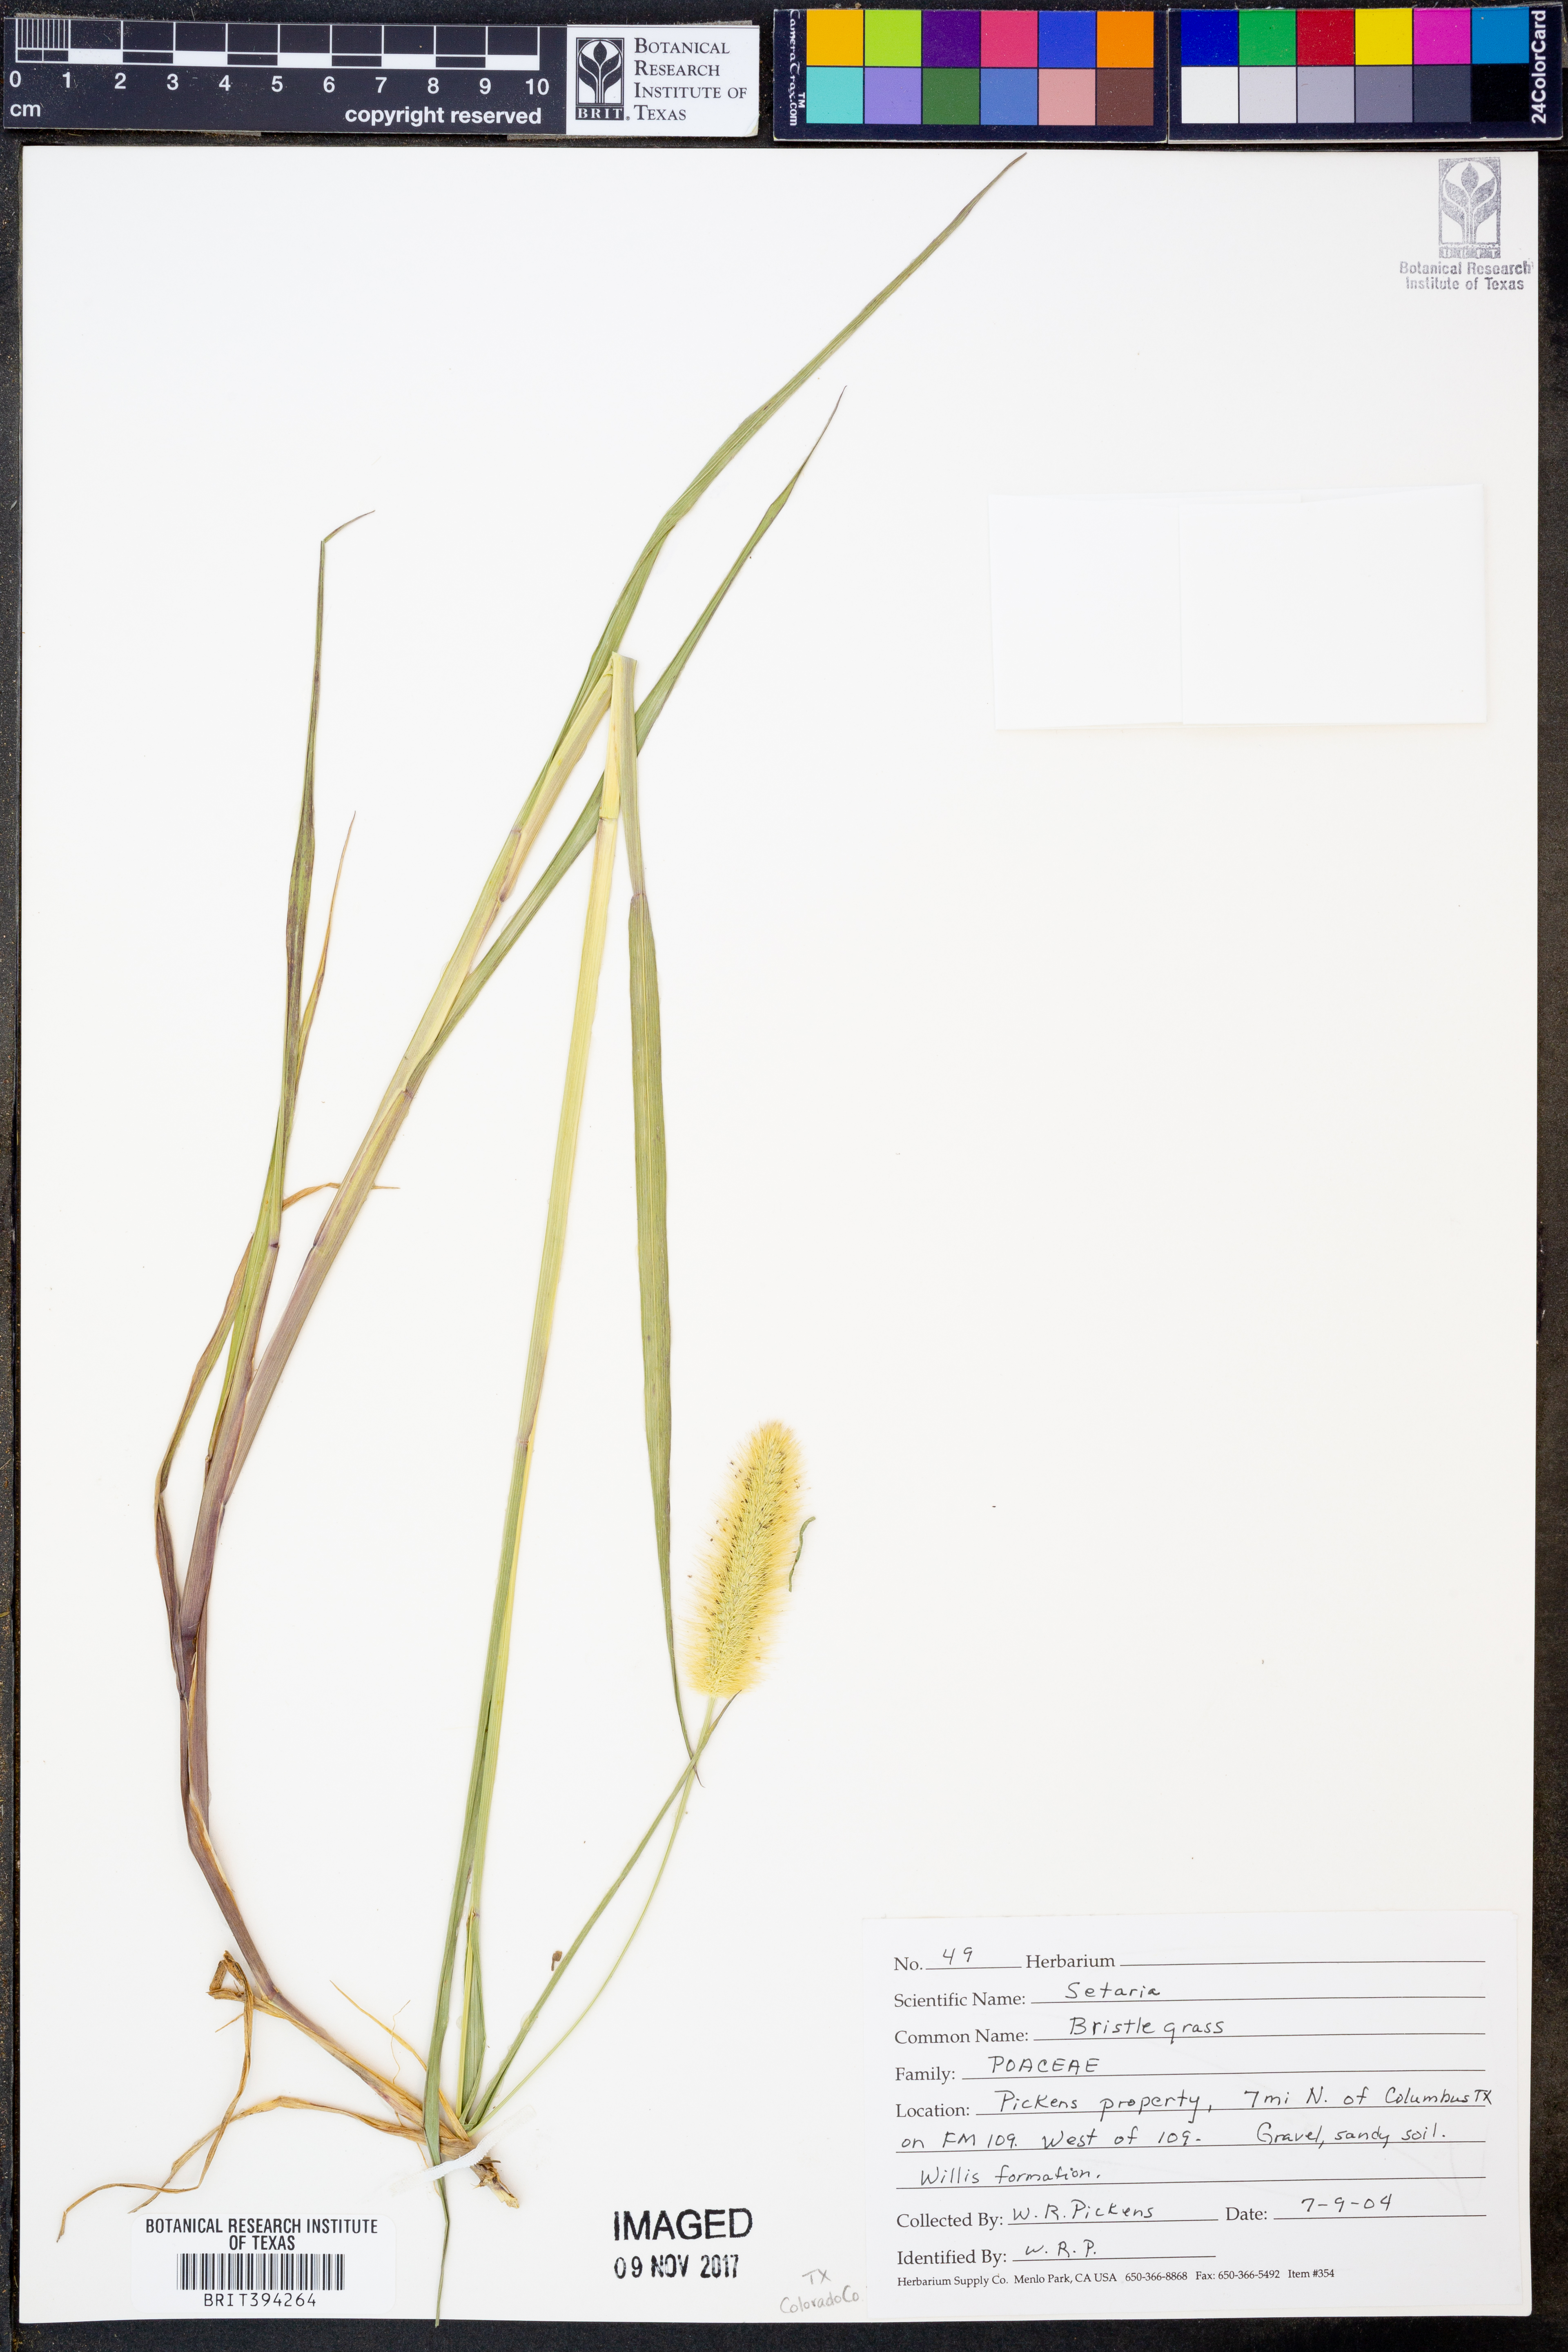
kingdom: Plantae
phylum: Tracheophyta
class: Liliopsida
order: Poales
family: Poaceae
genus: Setaria
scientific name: Setaria
